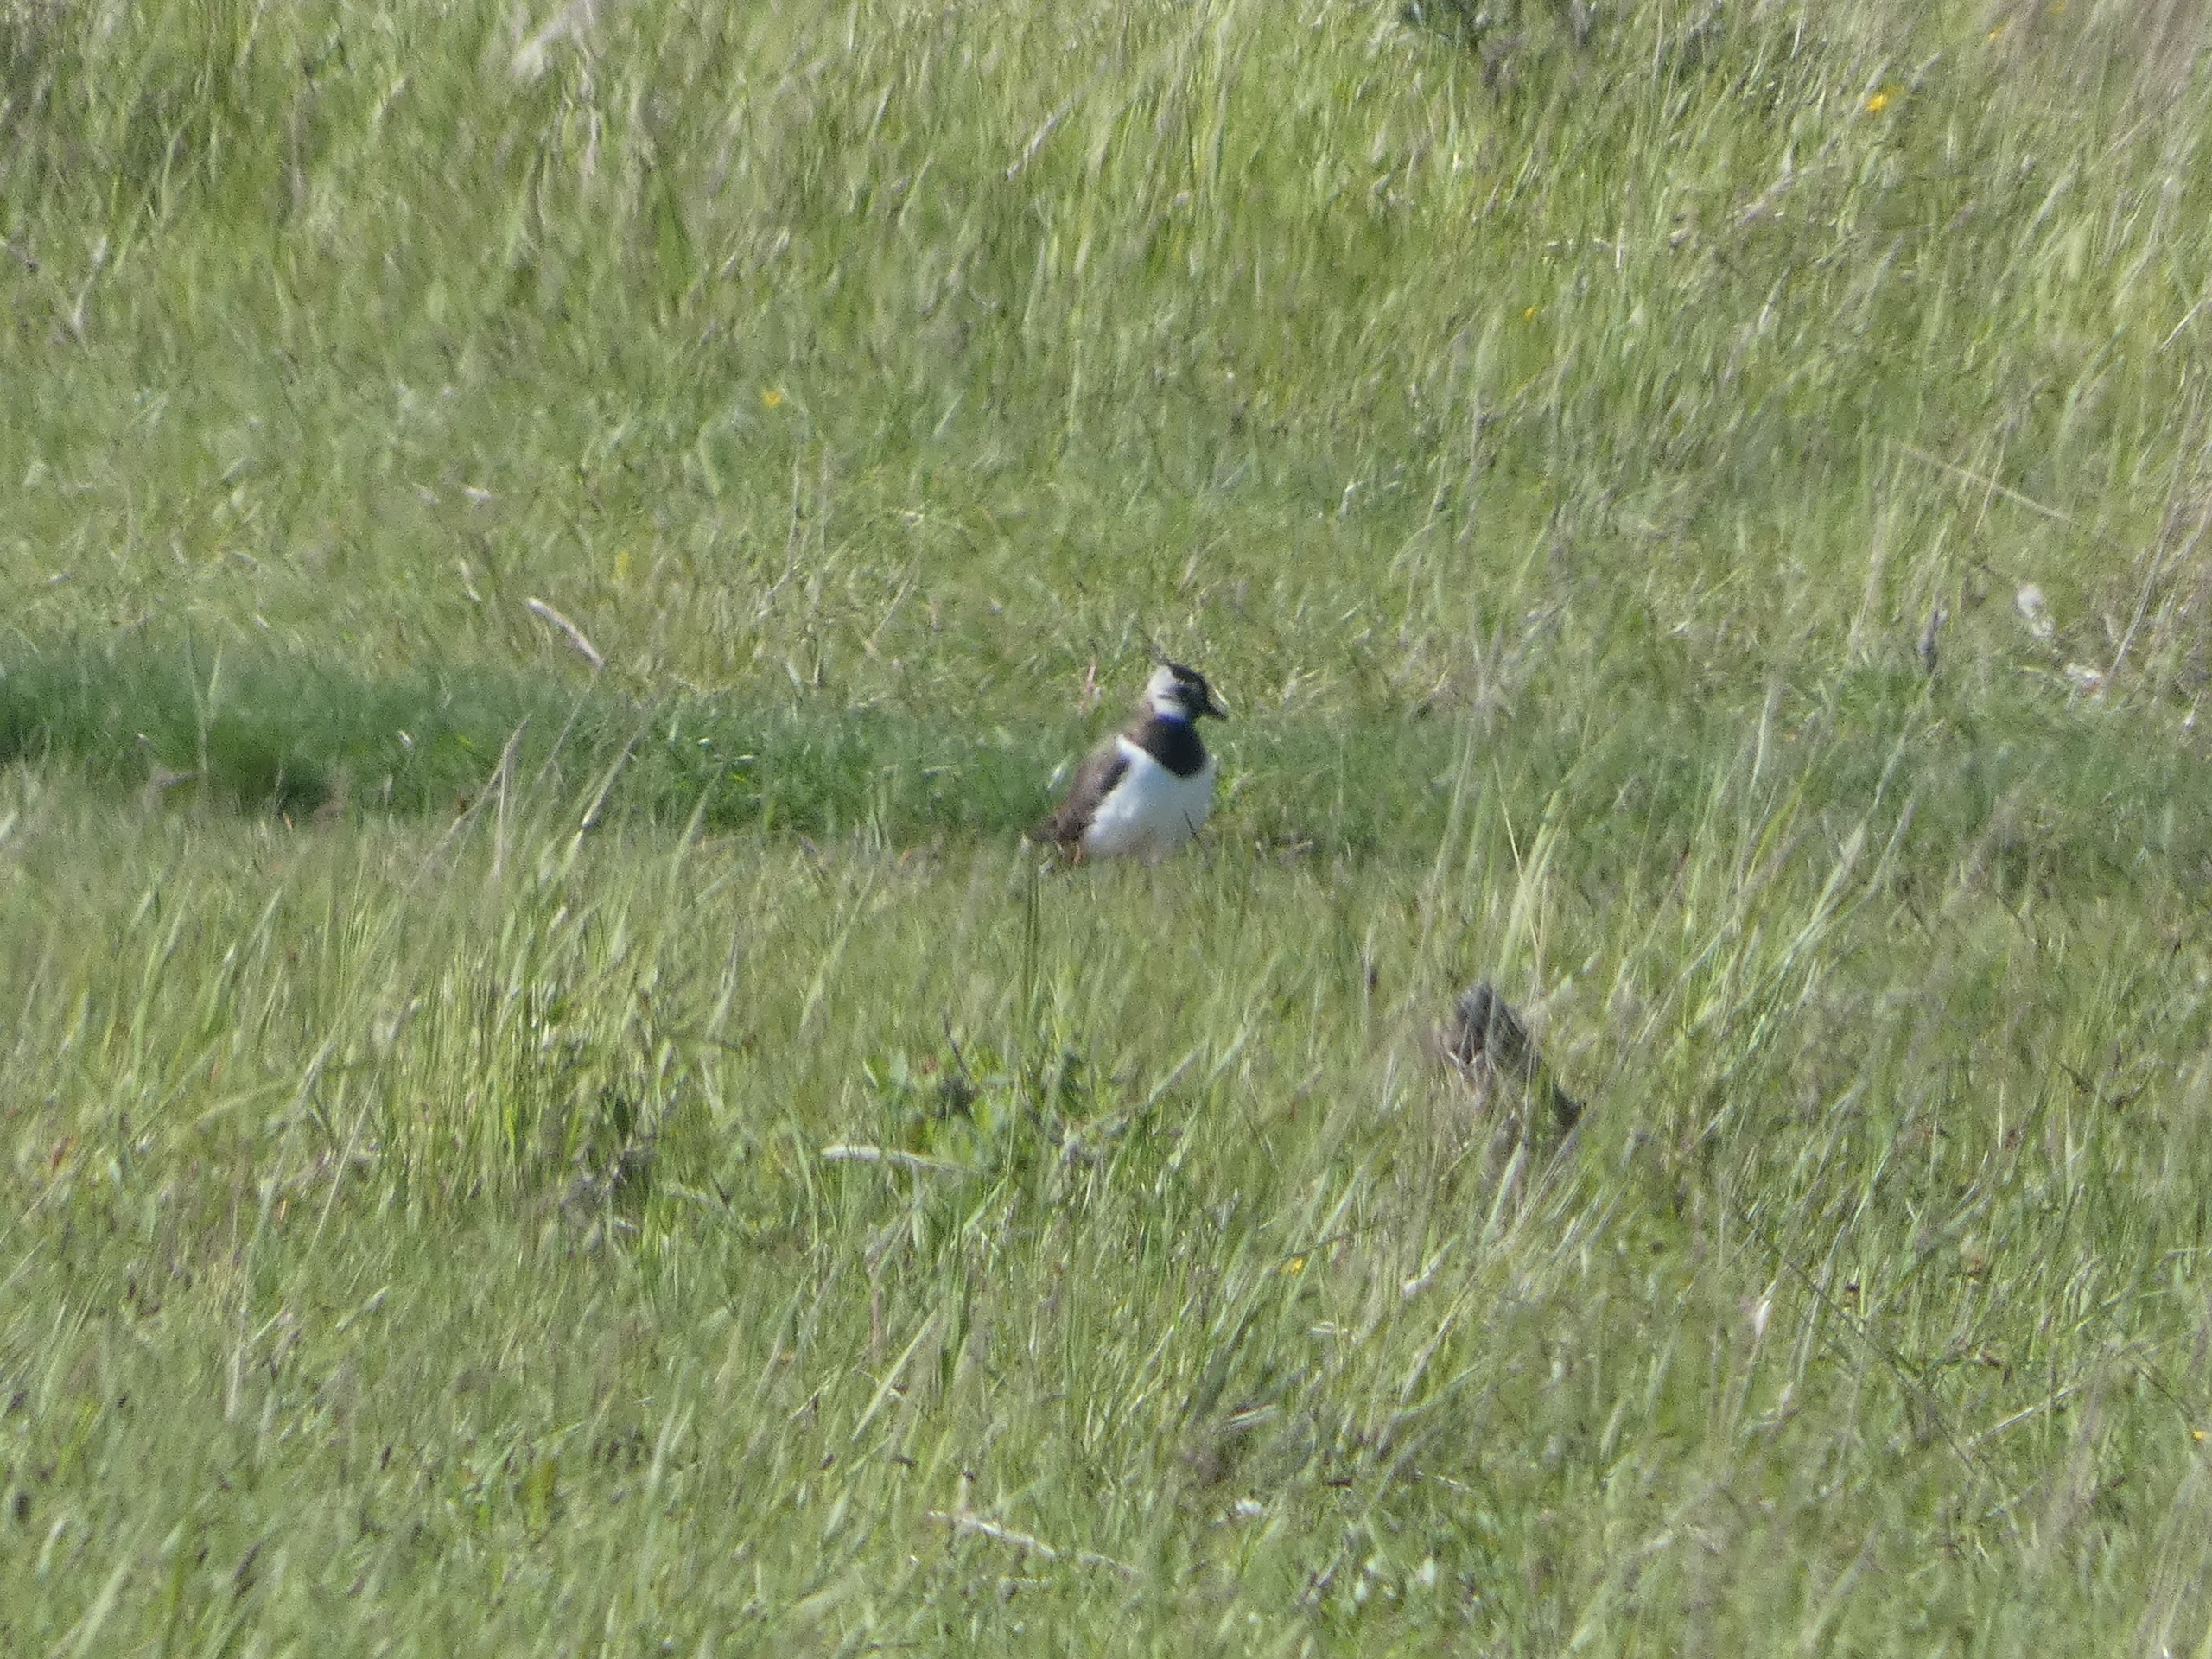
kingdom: Animalia
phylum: Chordata
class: Aves
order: Charadriiformes
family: Charadriidae
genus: Vanellus
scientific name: Vanellus vanellus
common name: Vibe
